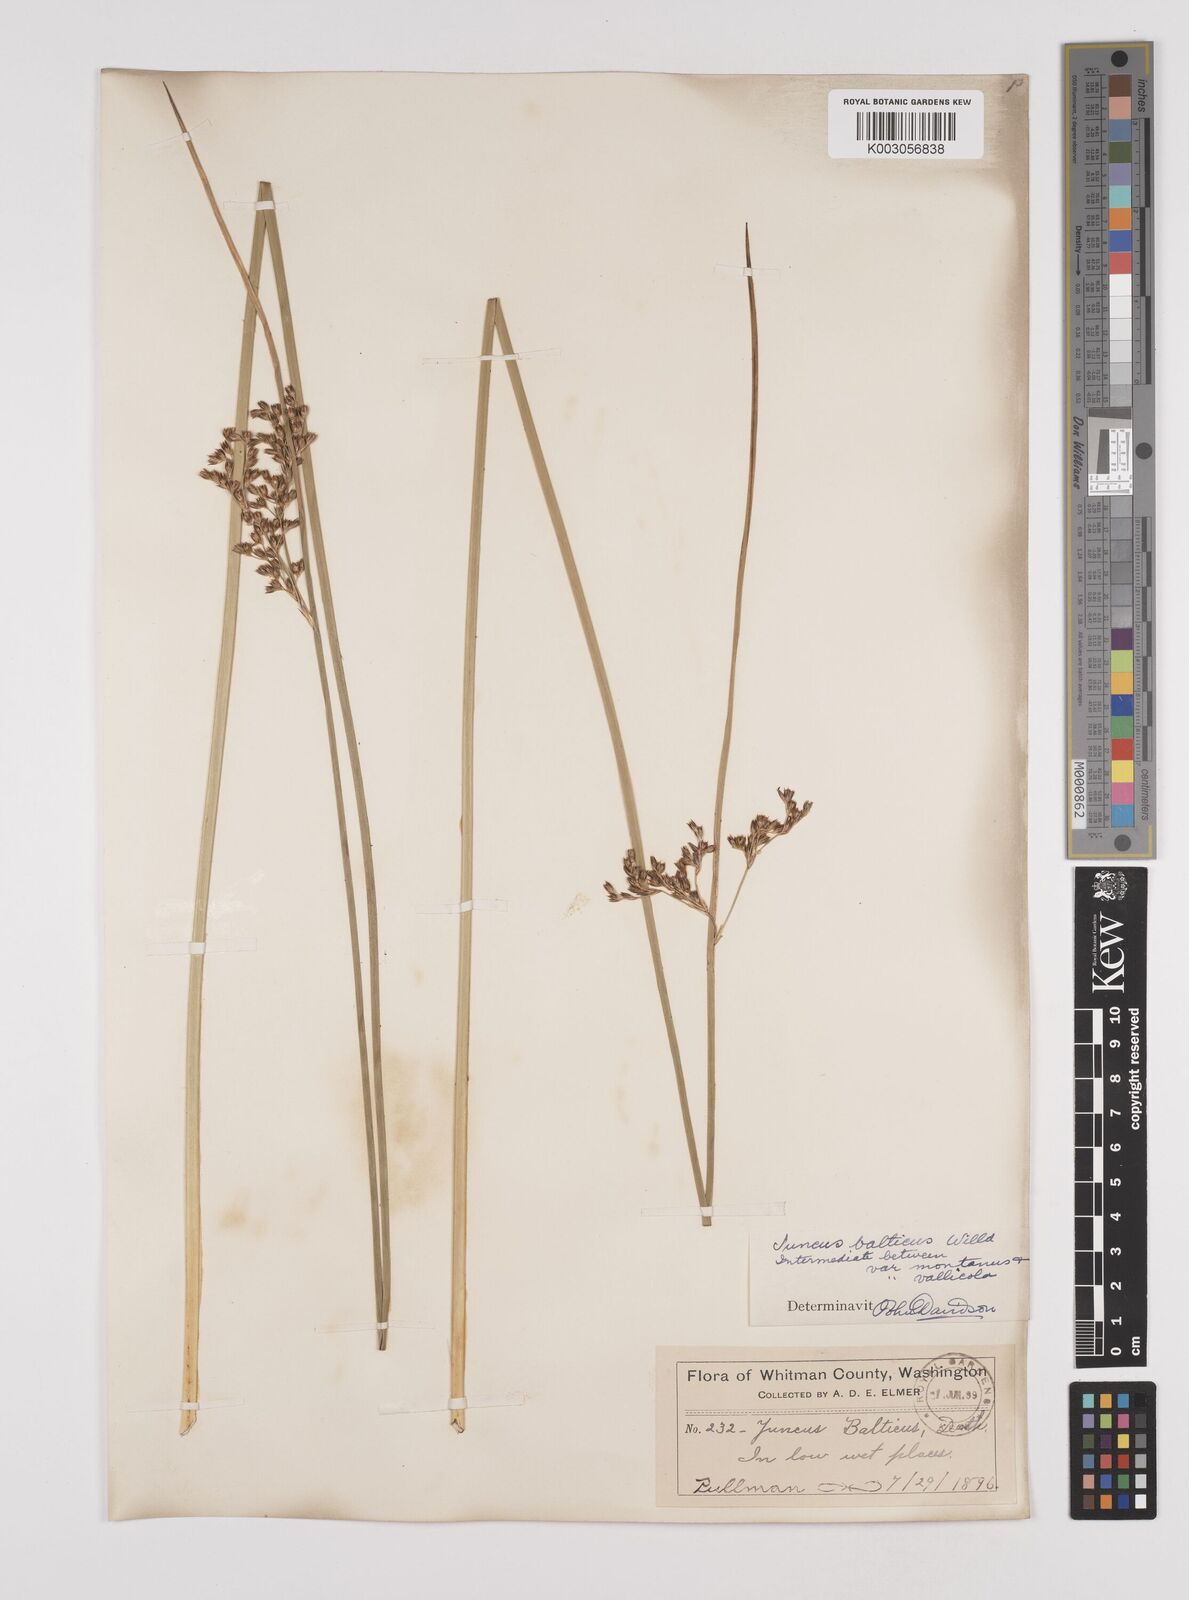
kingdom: Plantae
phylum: Tracheophyta
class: Liliopsida
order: Poales
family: Juncaceae
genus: Juncus
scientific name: Juncus balticus
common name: Baltic rush
